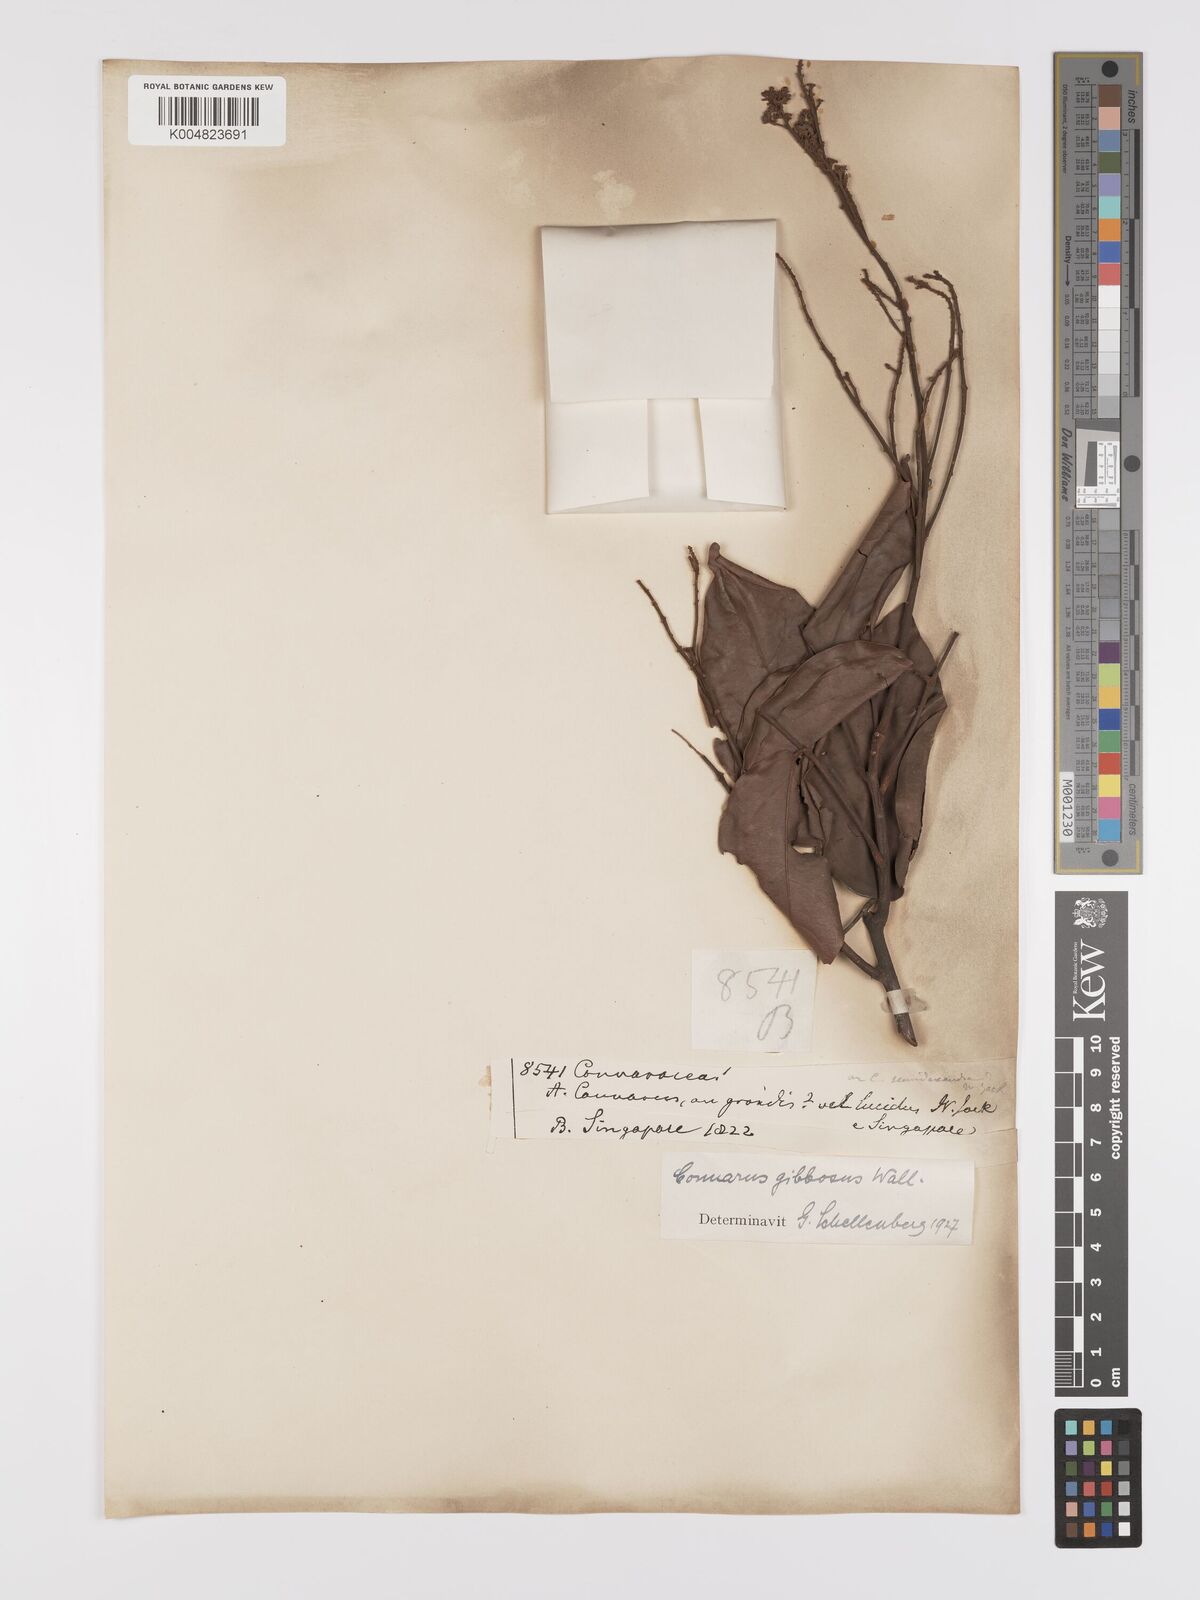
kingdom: Plantae
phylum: Tracheophyta
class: Magnoliopsida
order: Oxalidales
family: Connaraceae
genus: Connarus
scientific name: Connarus semidecandrus
